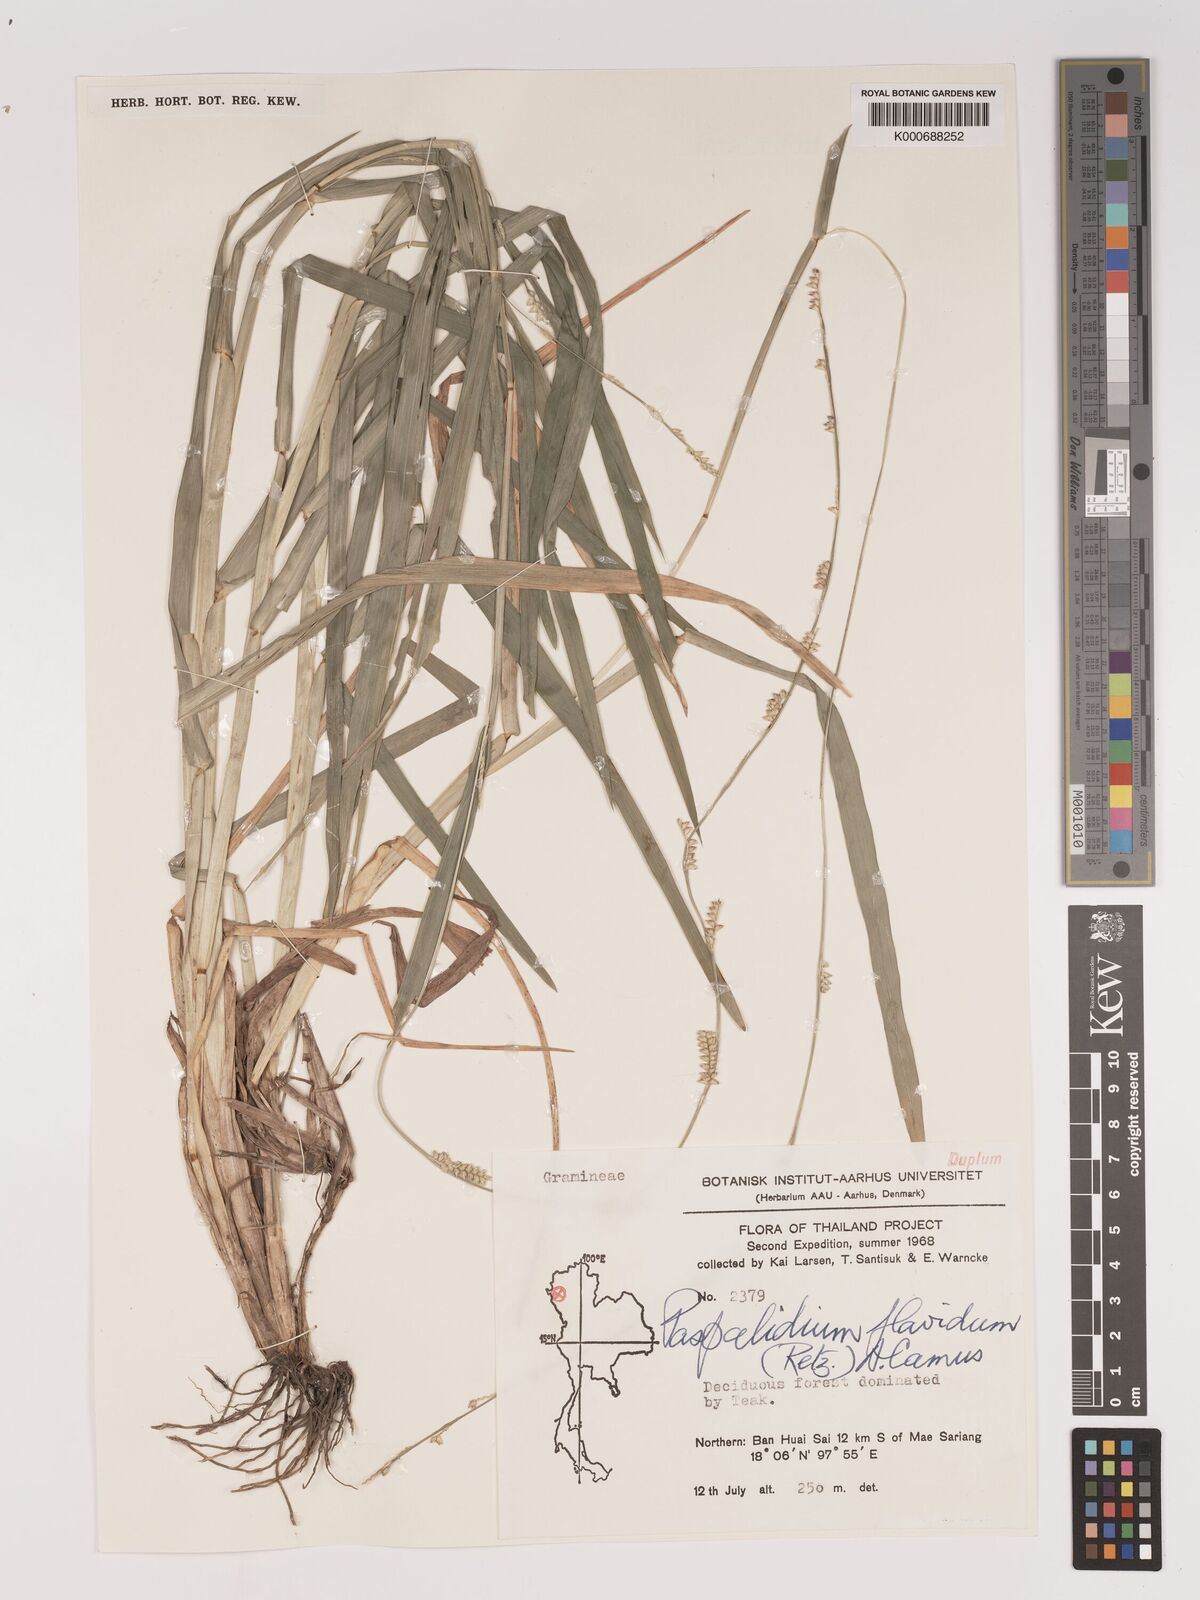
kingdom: Plantae
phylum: Tracheophyta
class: Liliopsida
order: Poales
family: Poaceae
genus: Setaria
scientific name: Setaria flavida
